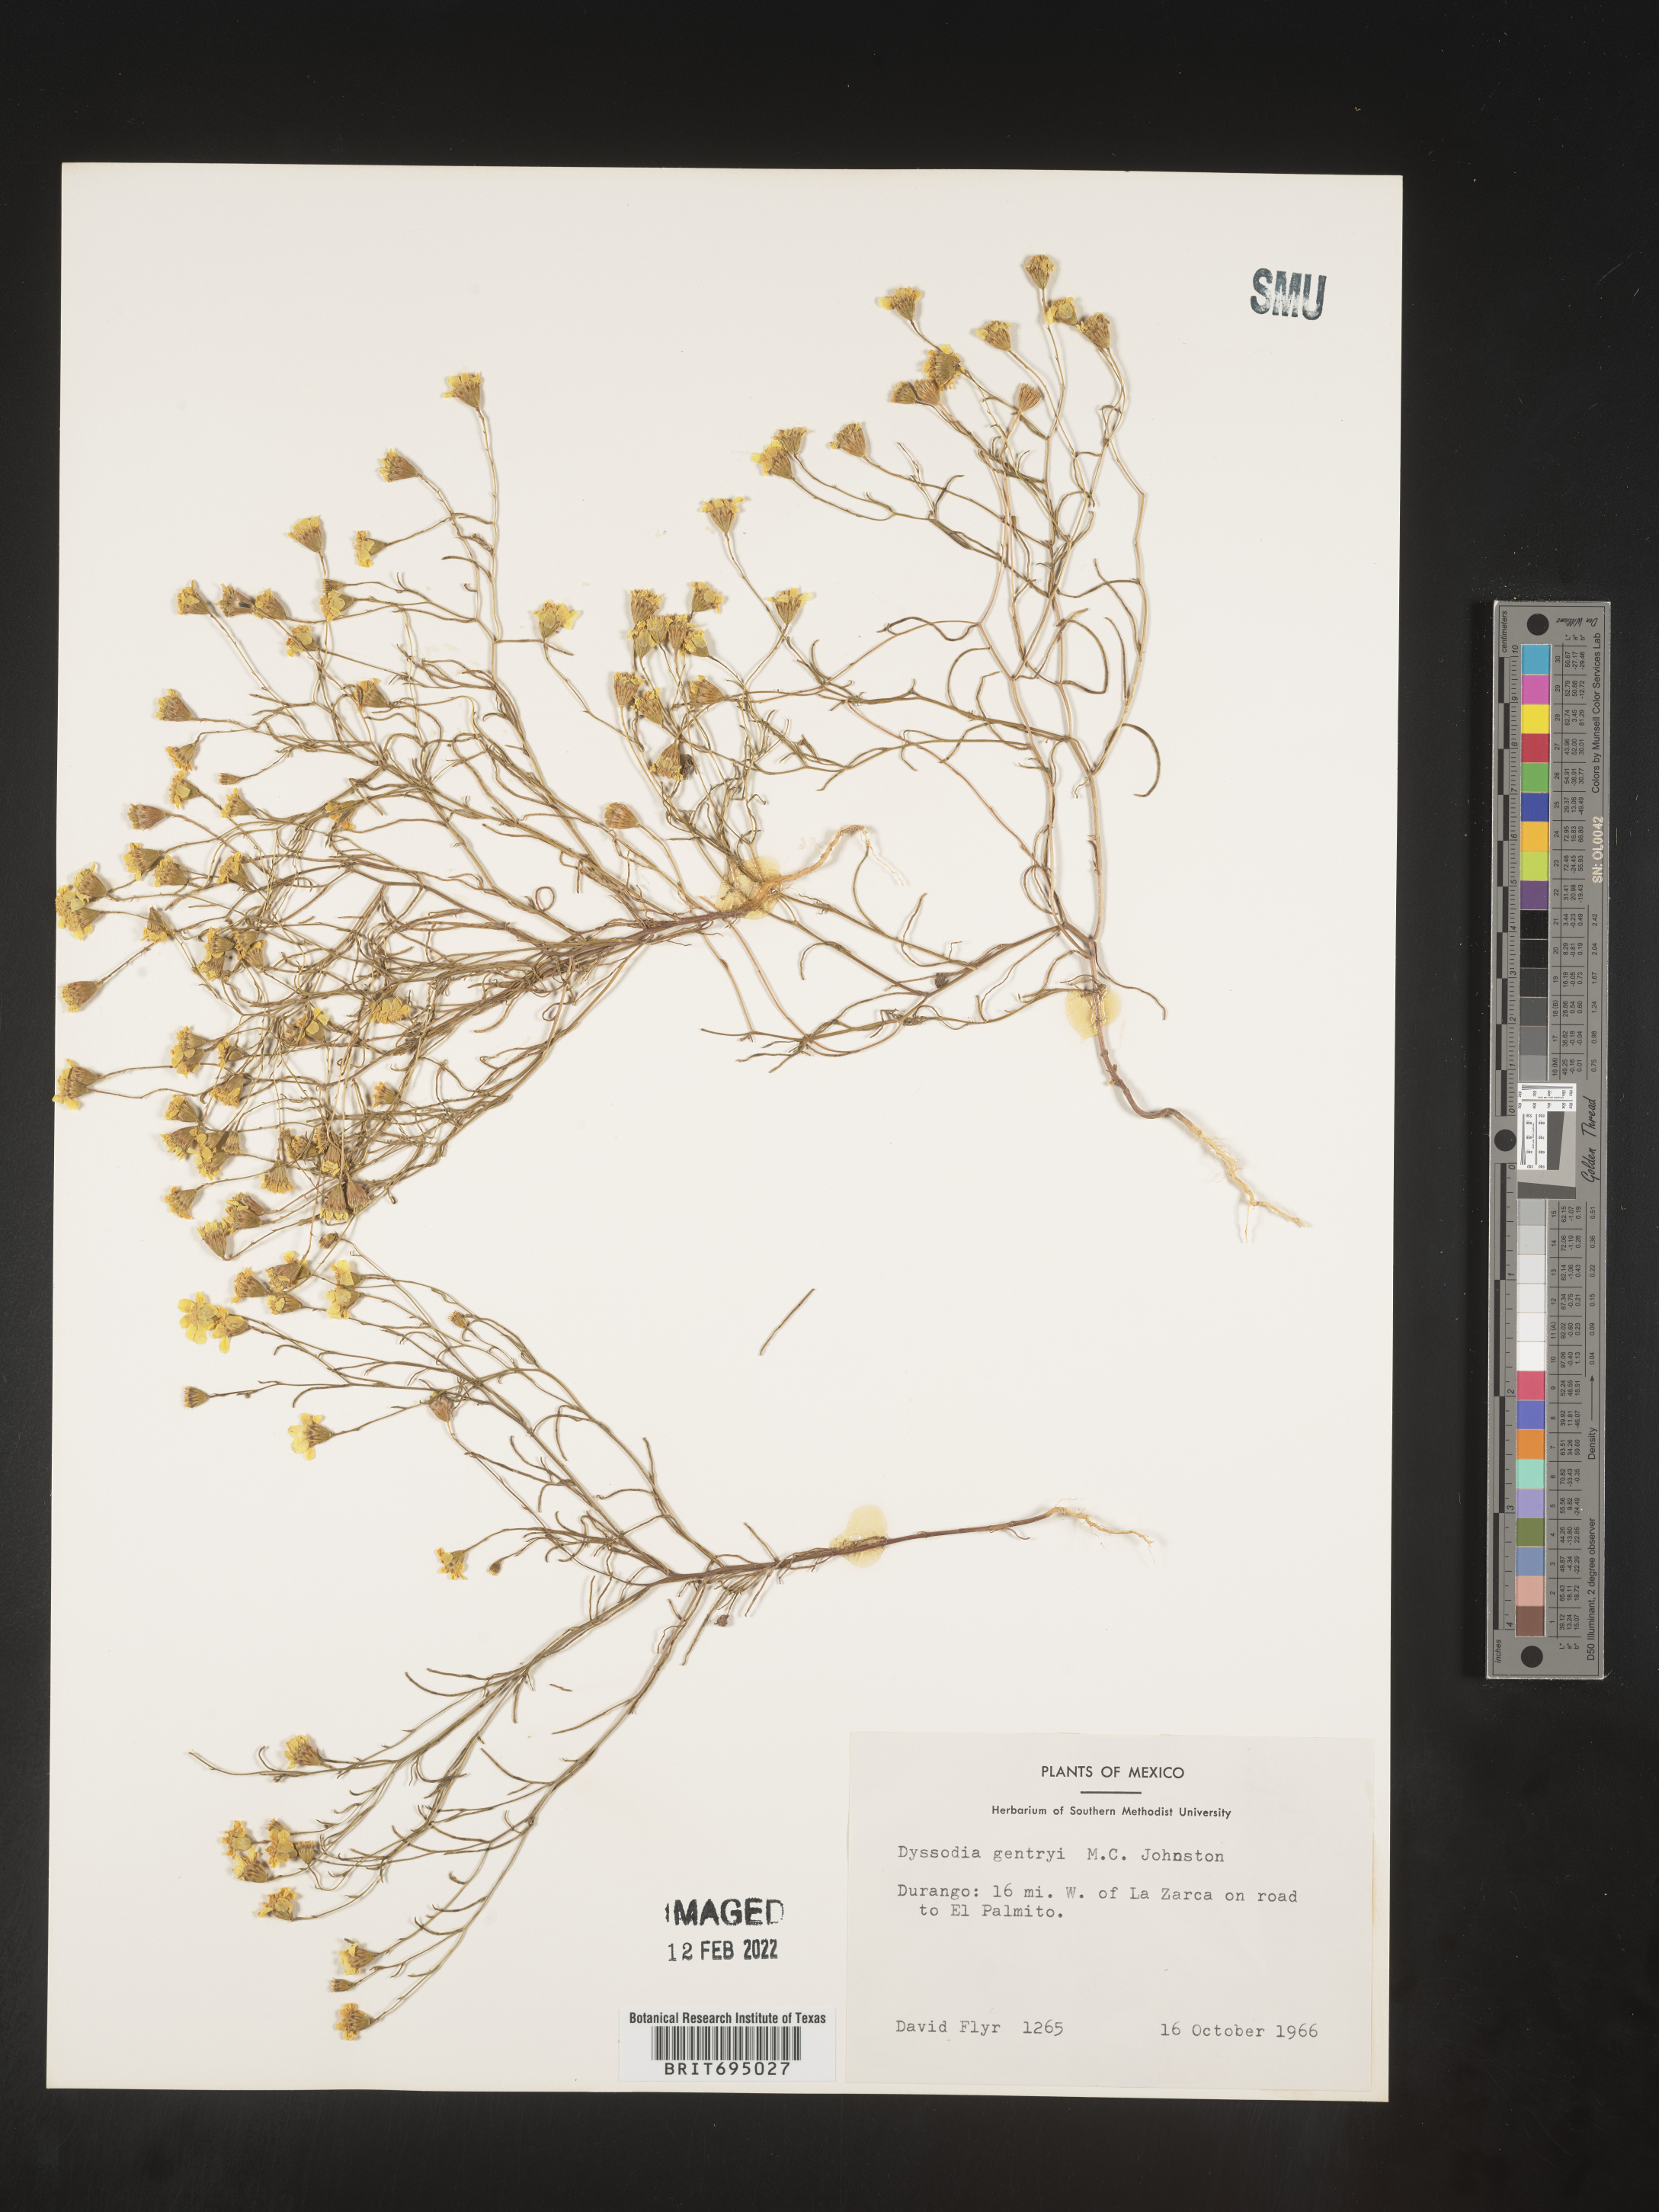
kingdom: Plantae
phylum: Tracheophyta
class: Magnoliopsida
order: Asterales
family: Asteraceae
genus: Thymophylla
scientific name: Thymophylla gentryi
